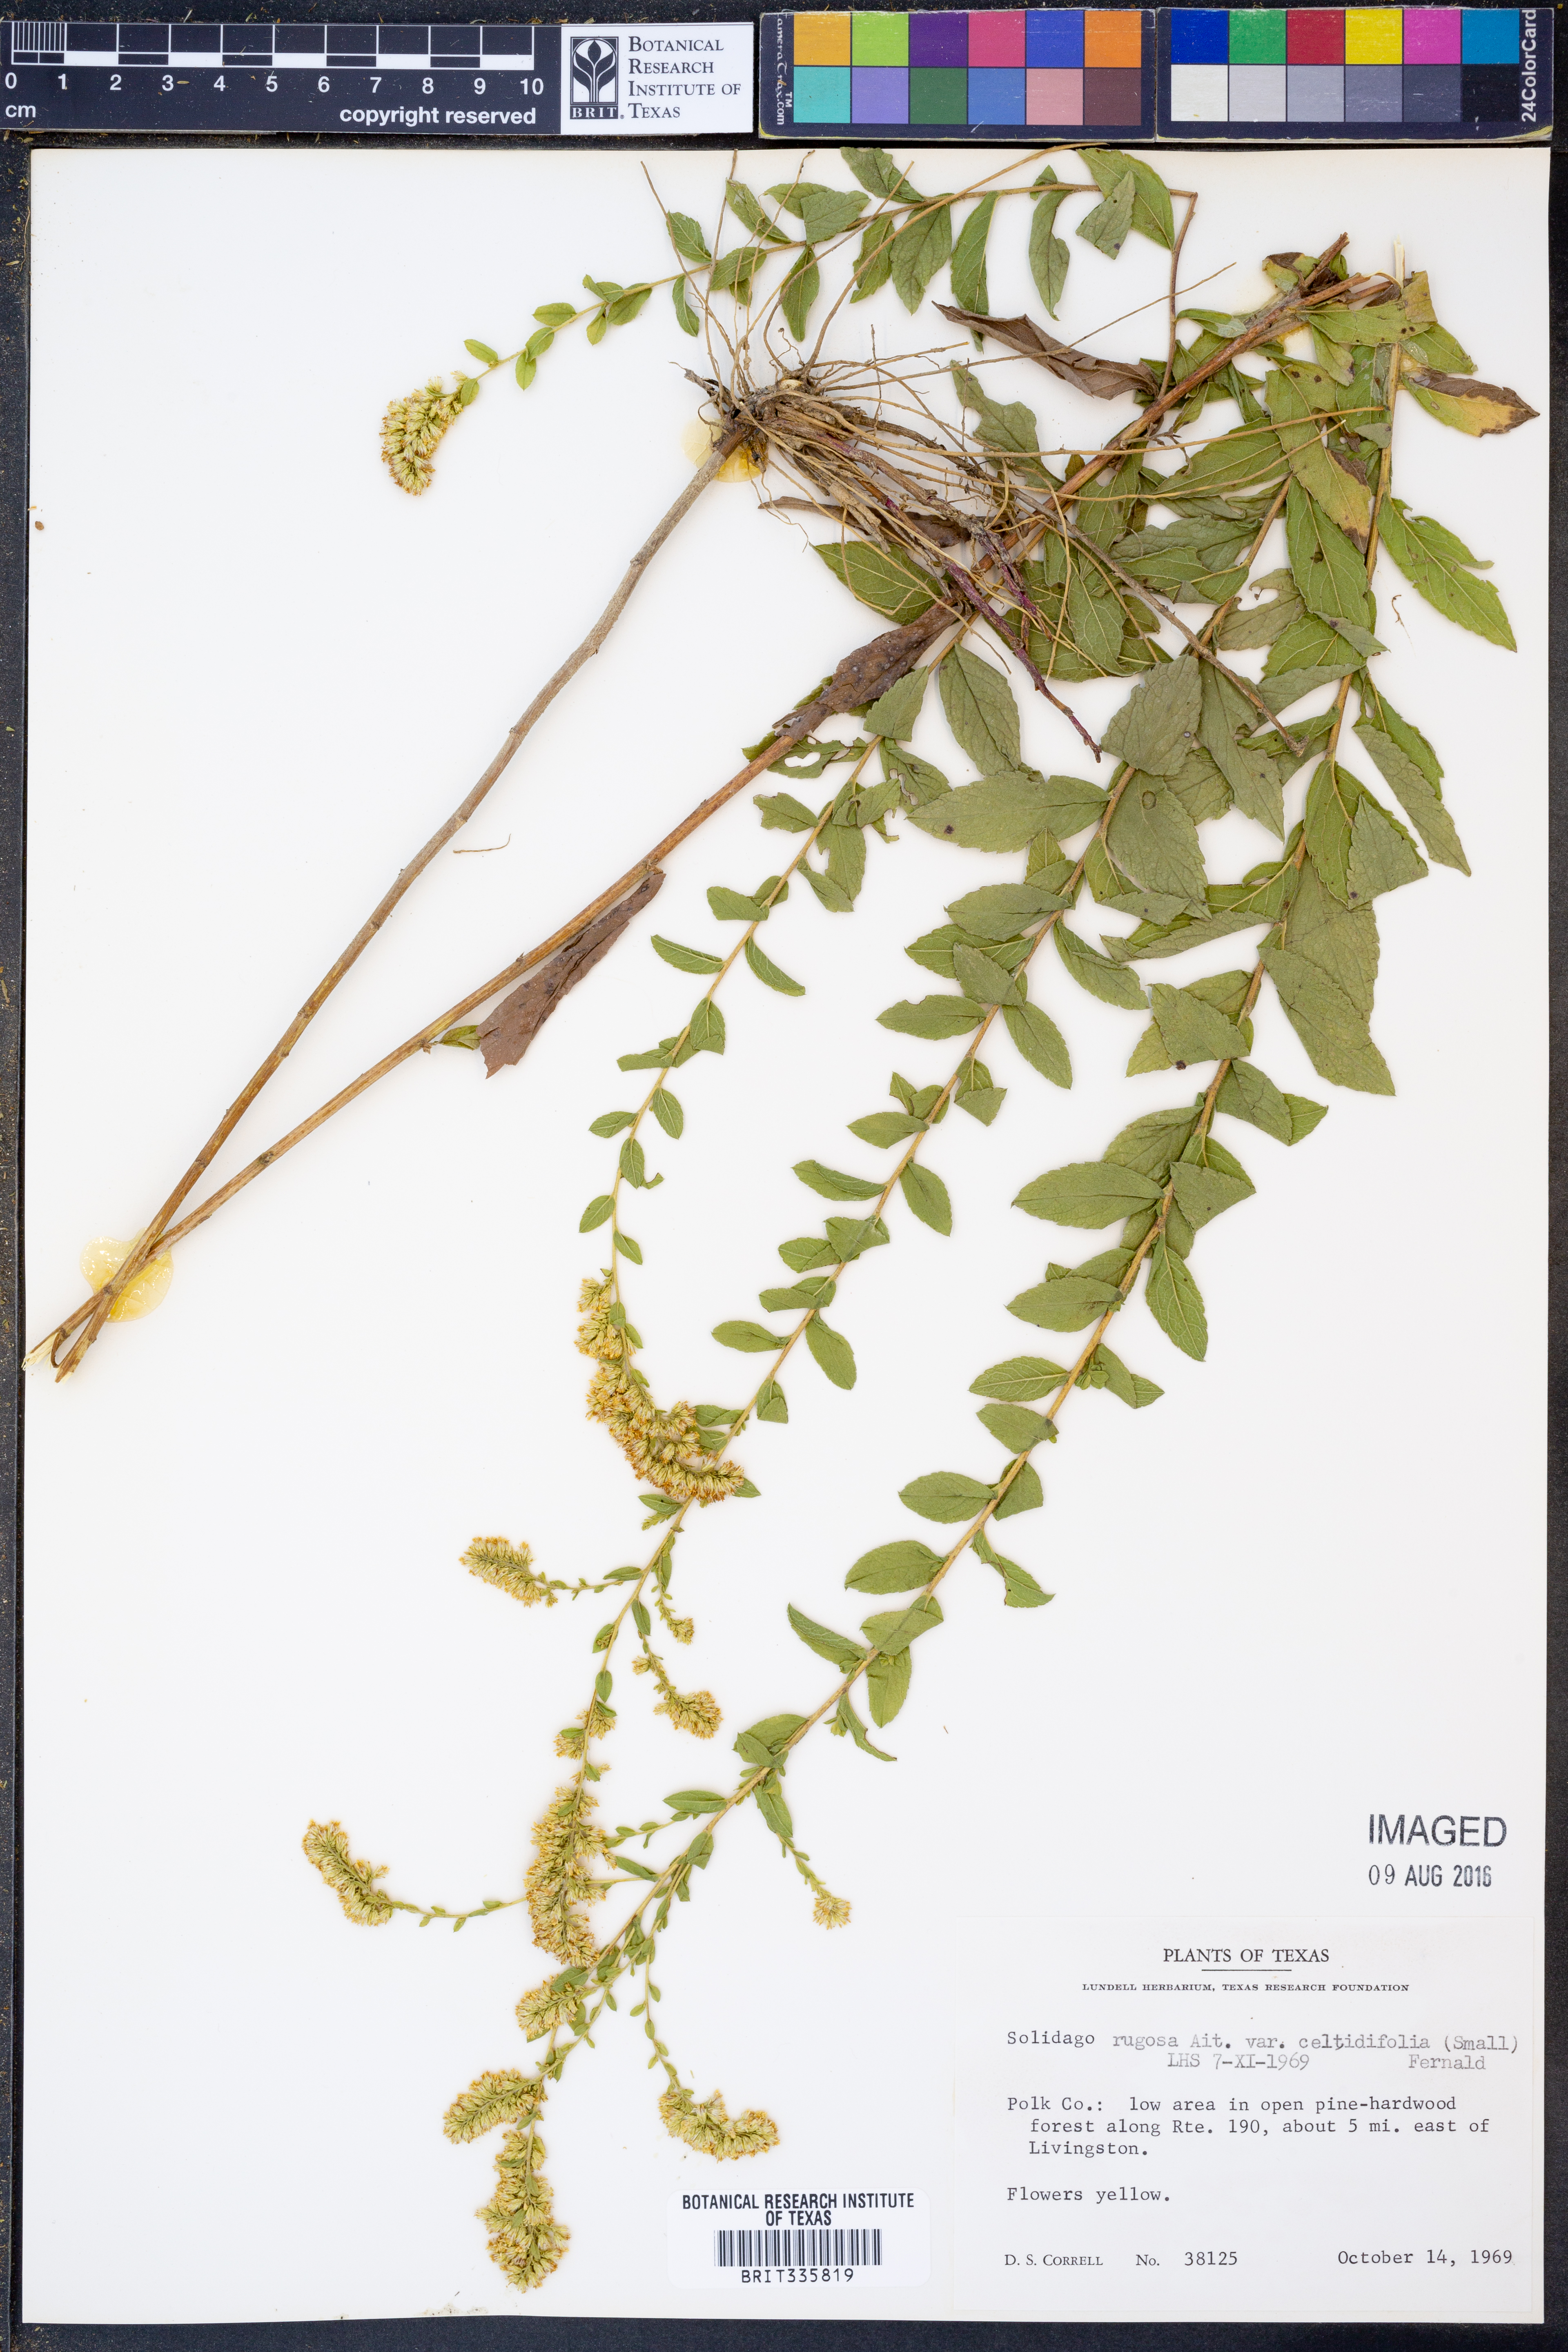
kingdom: Plantae
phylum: Tracheophyta
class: Magnoliopsida
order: Asterales
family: Asteraceae
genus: Solidago
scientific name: Solidago rugosa
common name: Rough-stemmed goldenrod
